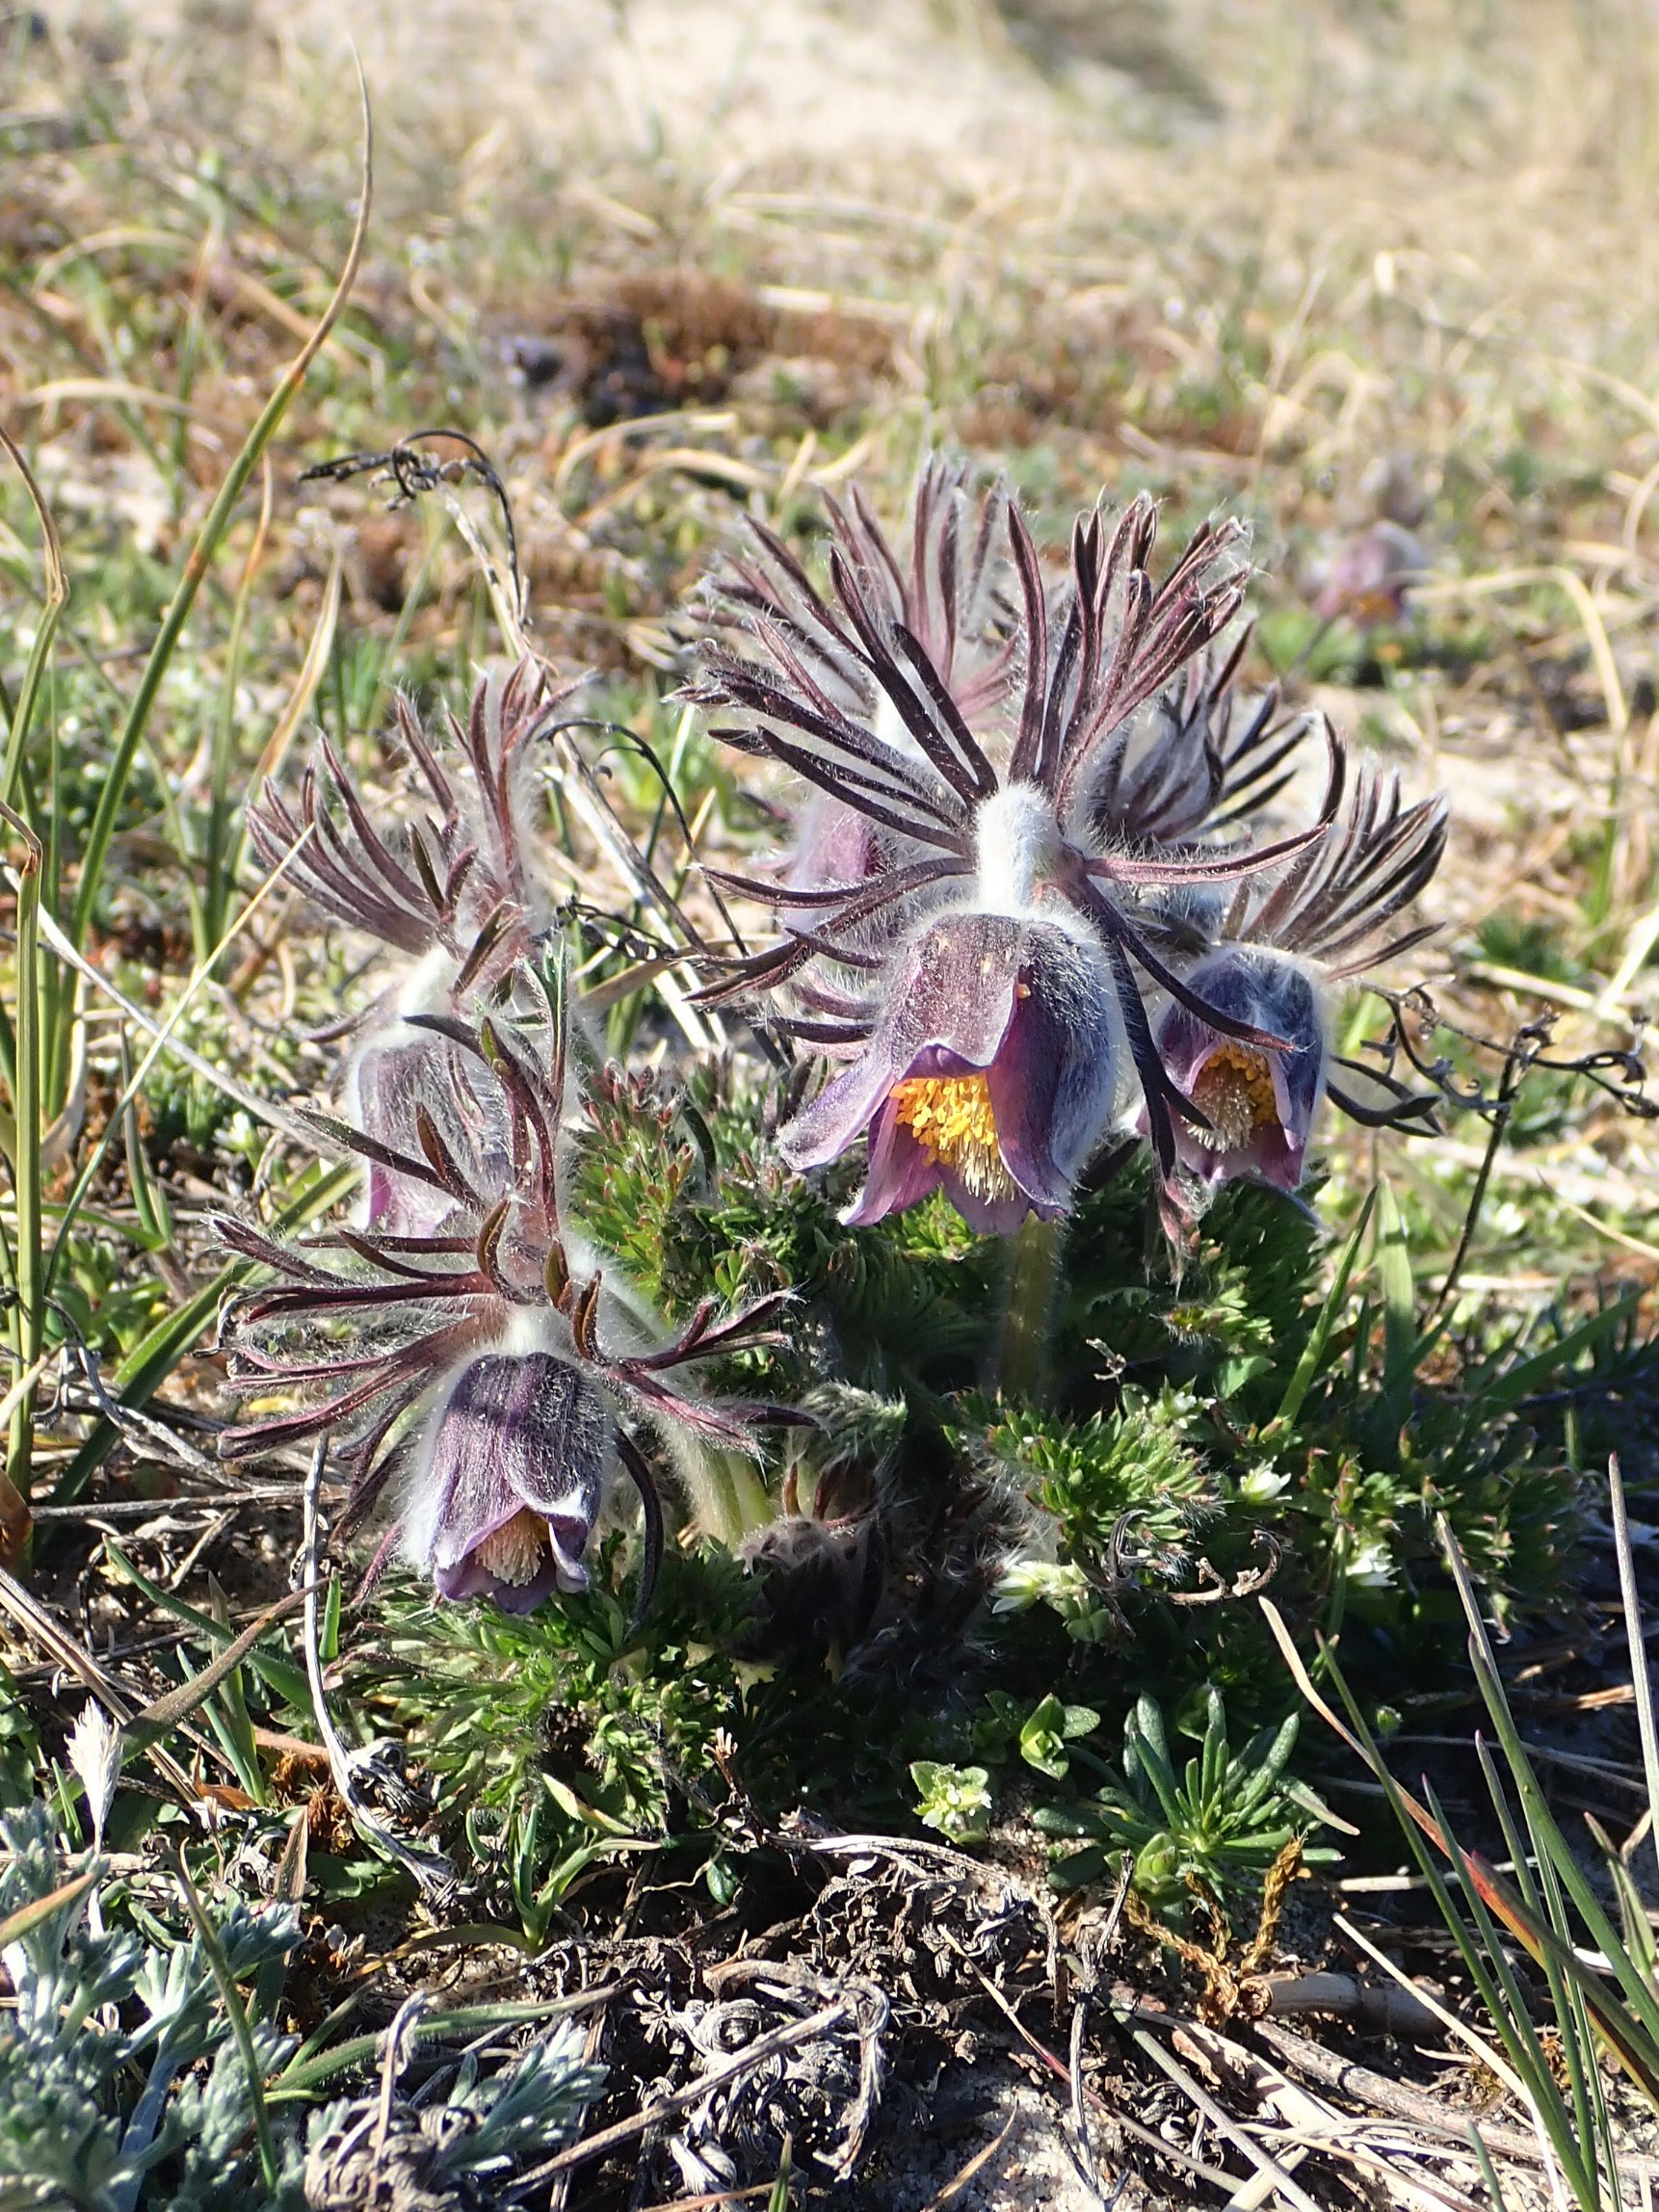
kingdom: Plantae
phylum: Tracheophyta
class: Magnoliopsida
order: Ranunculales
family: Ranunculaceae
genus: Pulsatilla
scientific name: Pulsatilla pratensis
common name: Nikkende kobjælde
